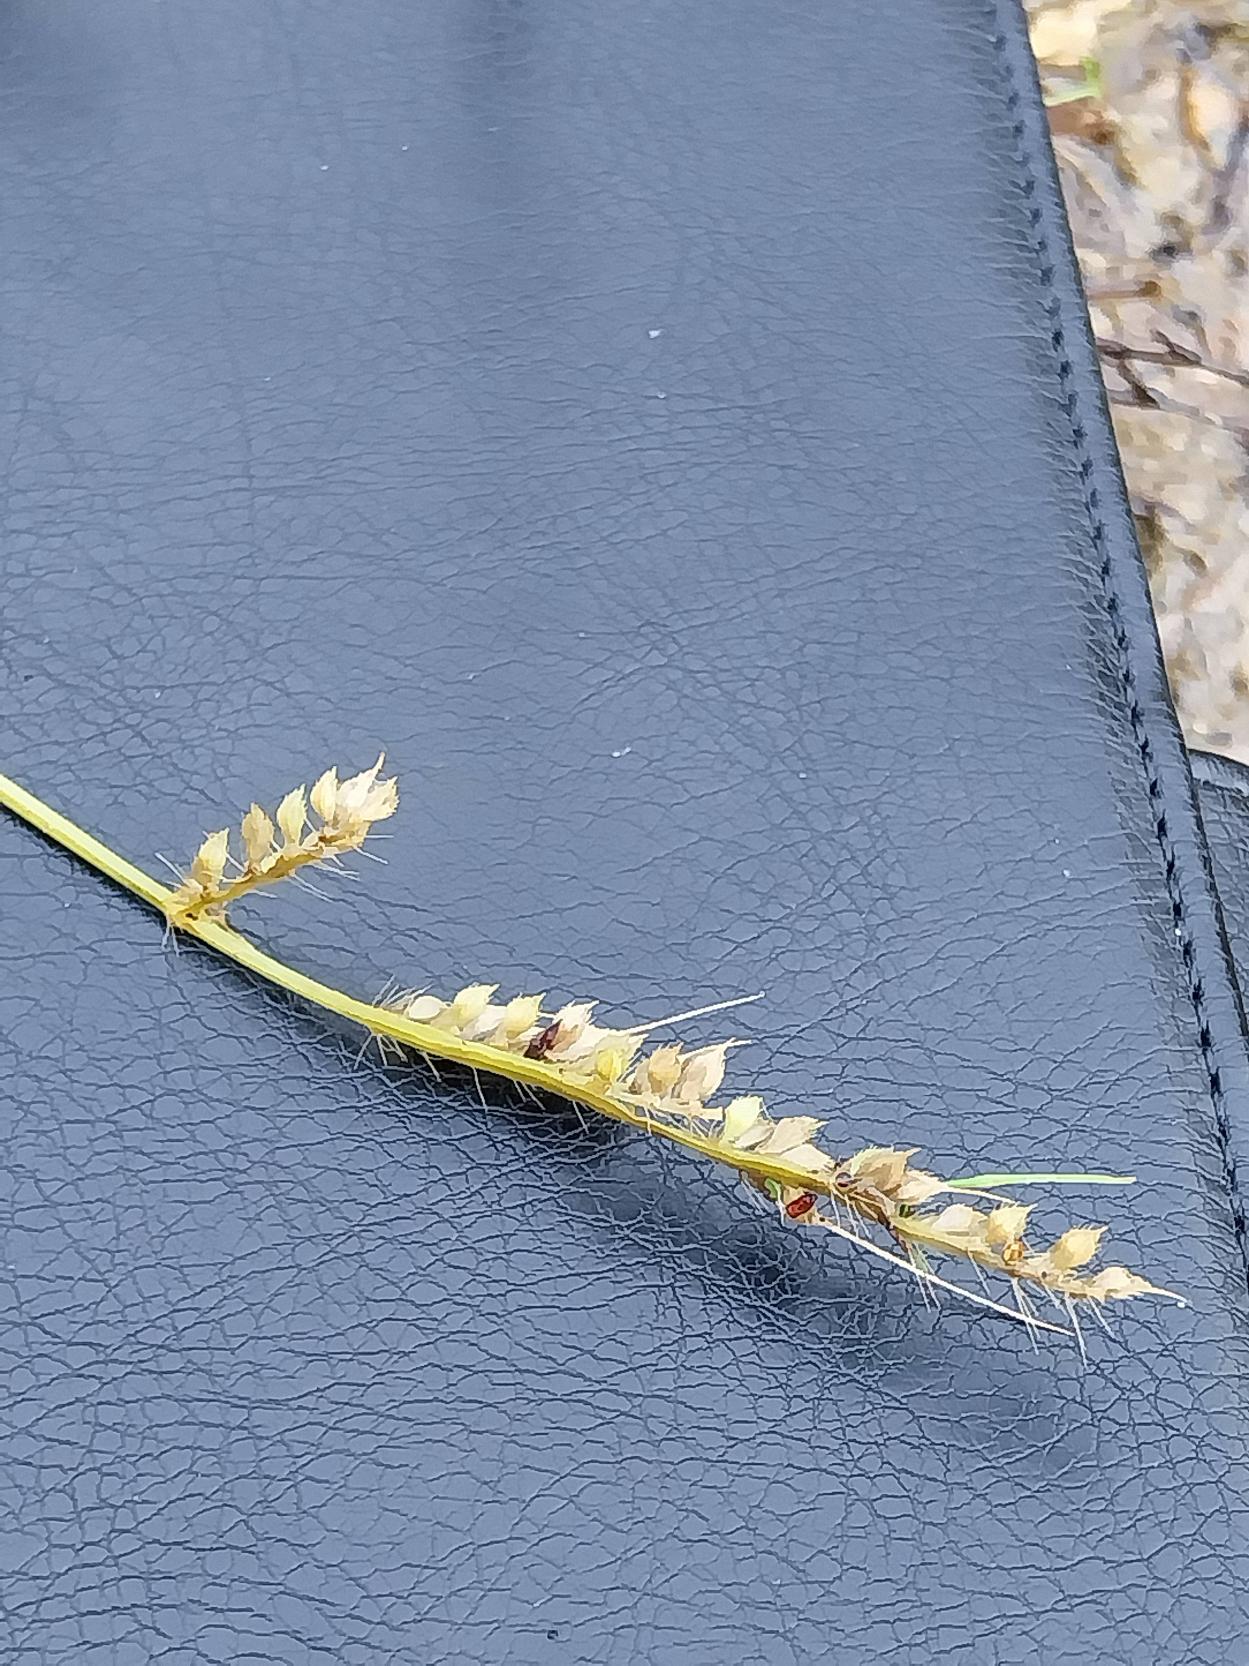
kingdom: Plantae
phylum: Tracheophyta
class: Liliopsida
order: Poales
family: Poaceae
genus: Echinochloa
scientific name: Echinochloa crus-galli
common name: Almindelig hanespore
